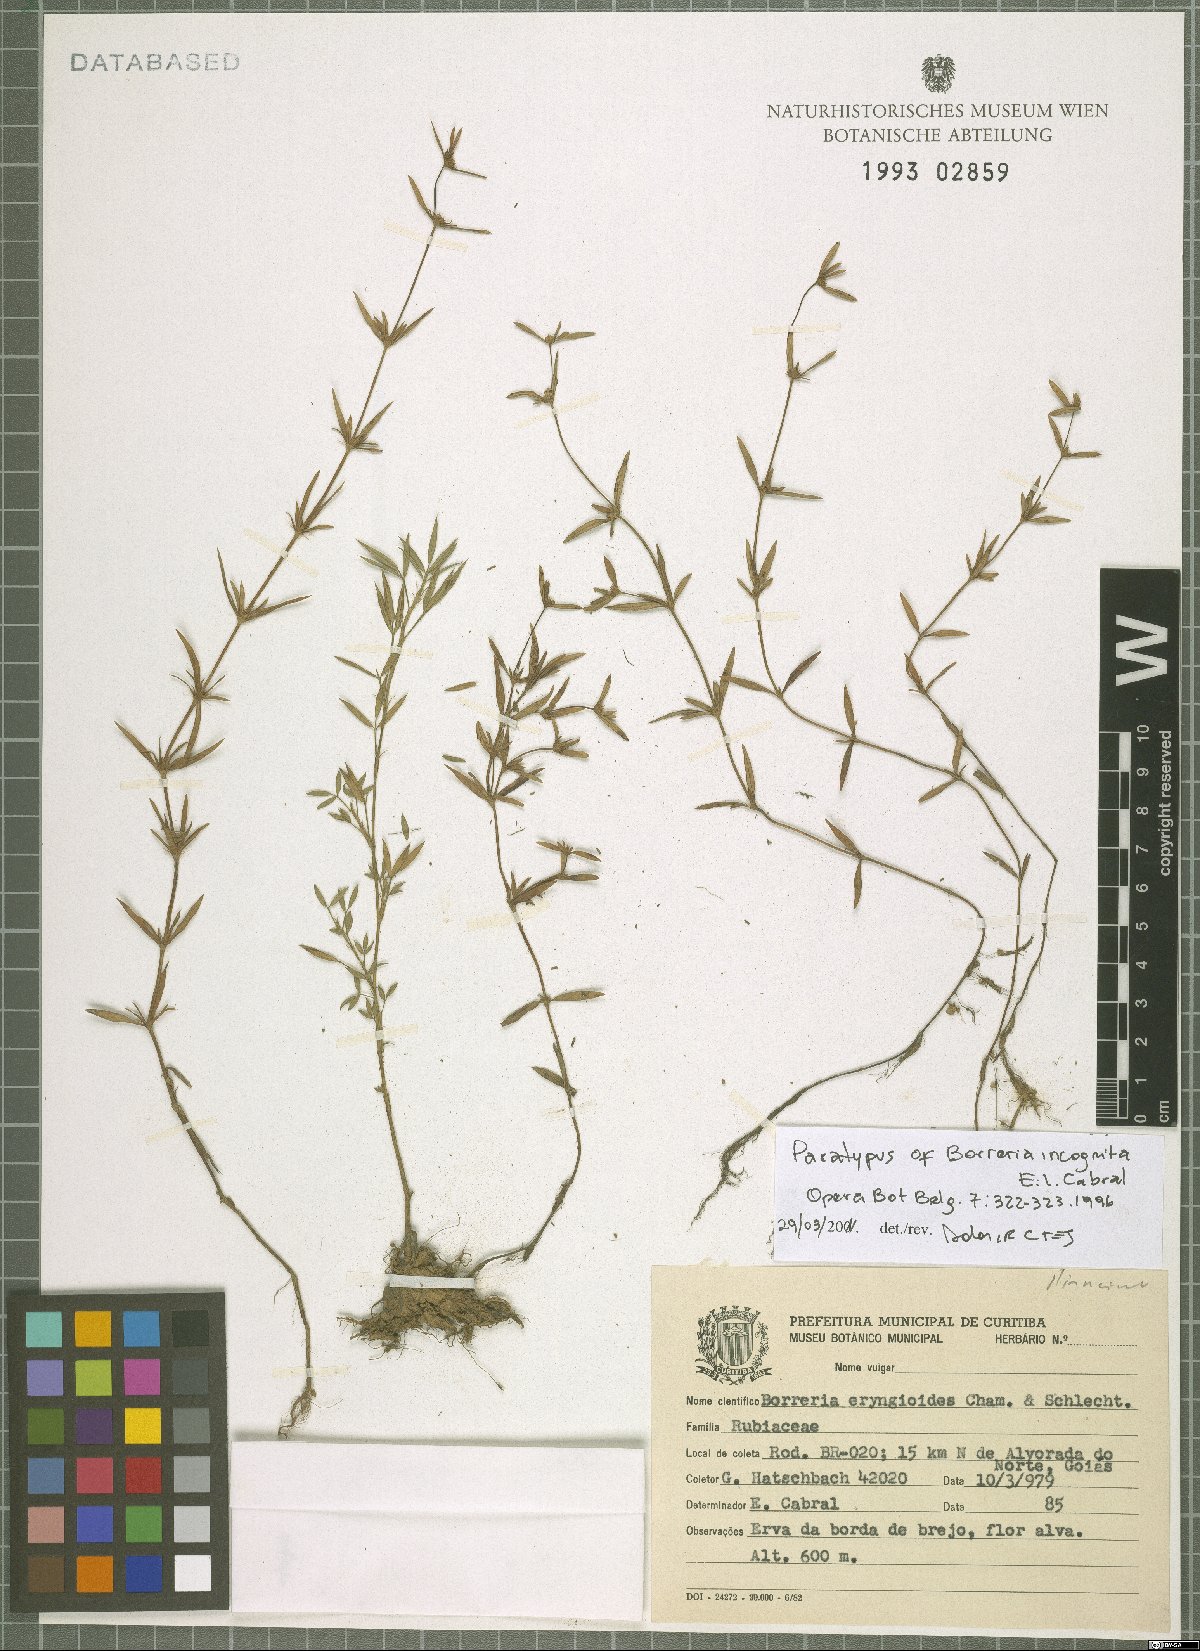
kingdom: Plantae
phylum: Tracheophyta
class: Magnoliopsida
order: Gentianales
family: Rubiaceae
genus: Spermacoce
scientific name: Spermacoce incognita
